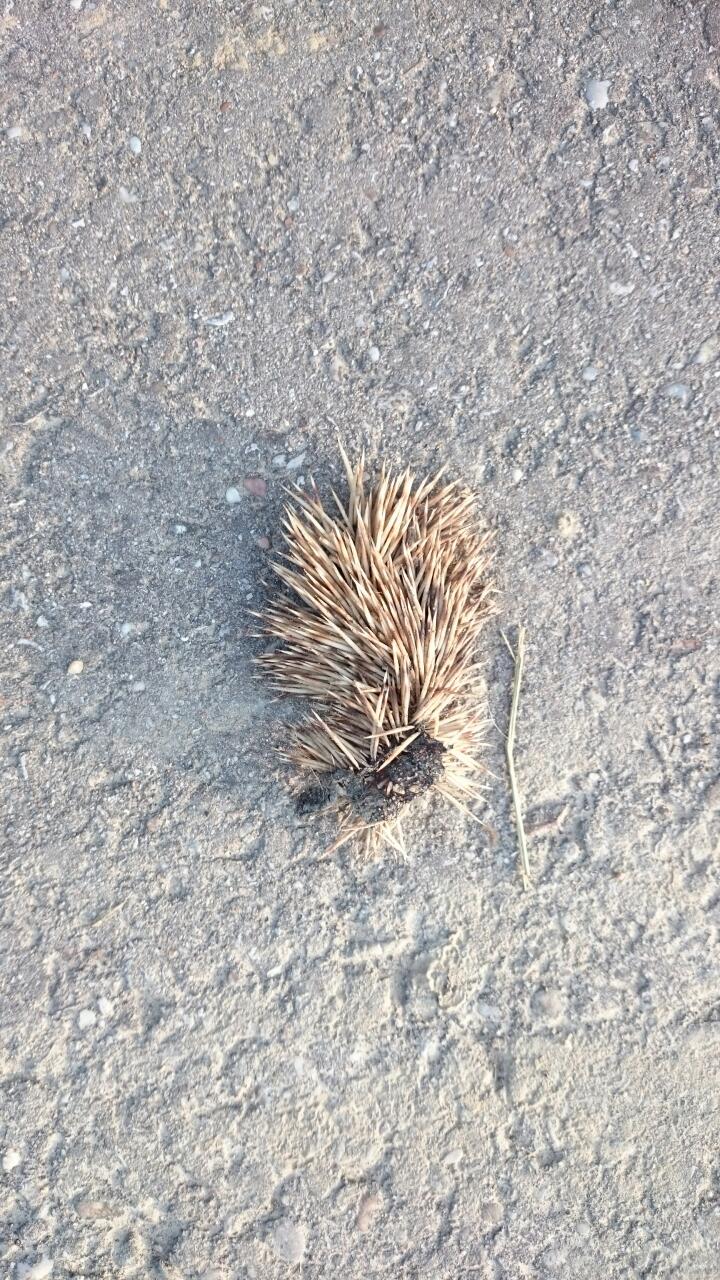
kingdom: Animalia
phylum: Chordata
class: Mammalia
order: Erinaceomorpha
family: Erinaceidae
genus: Erinaceus
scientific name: Erinaceus
